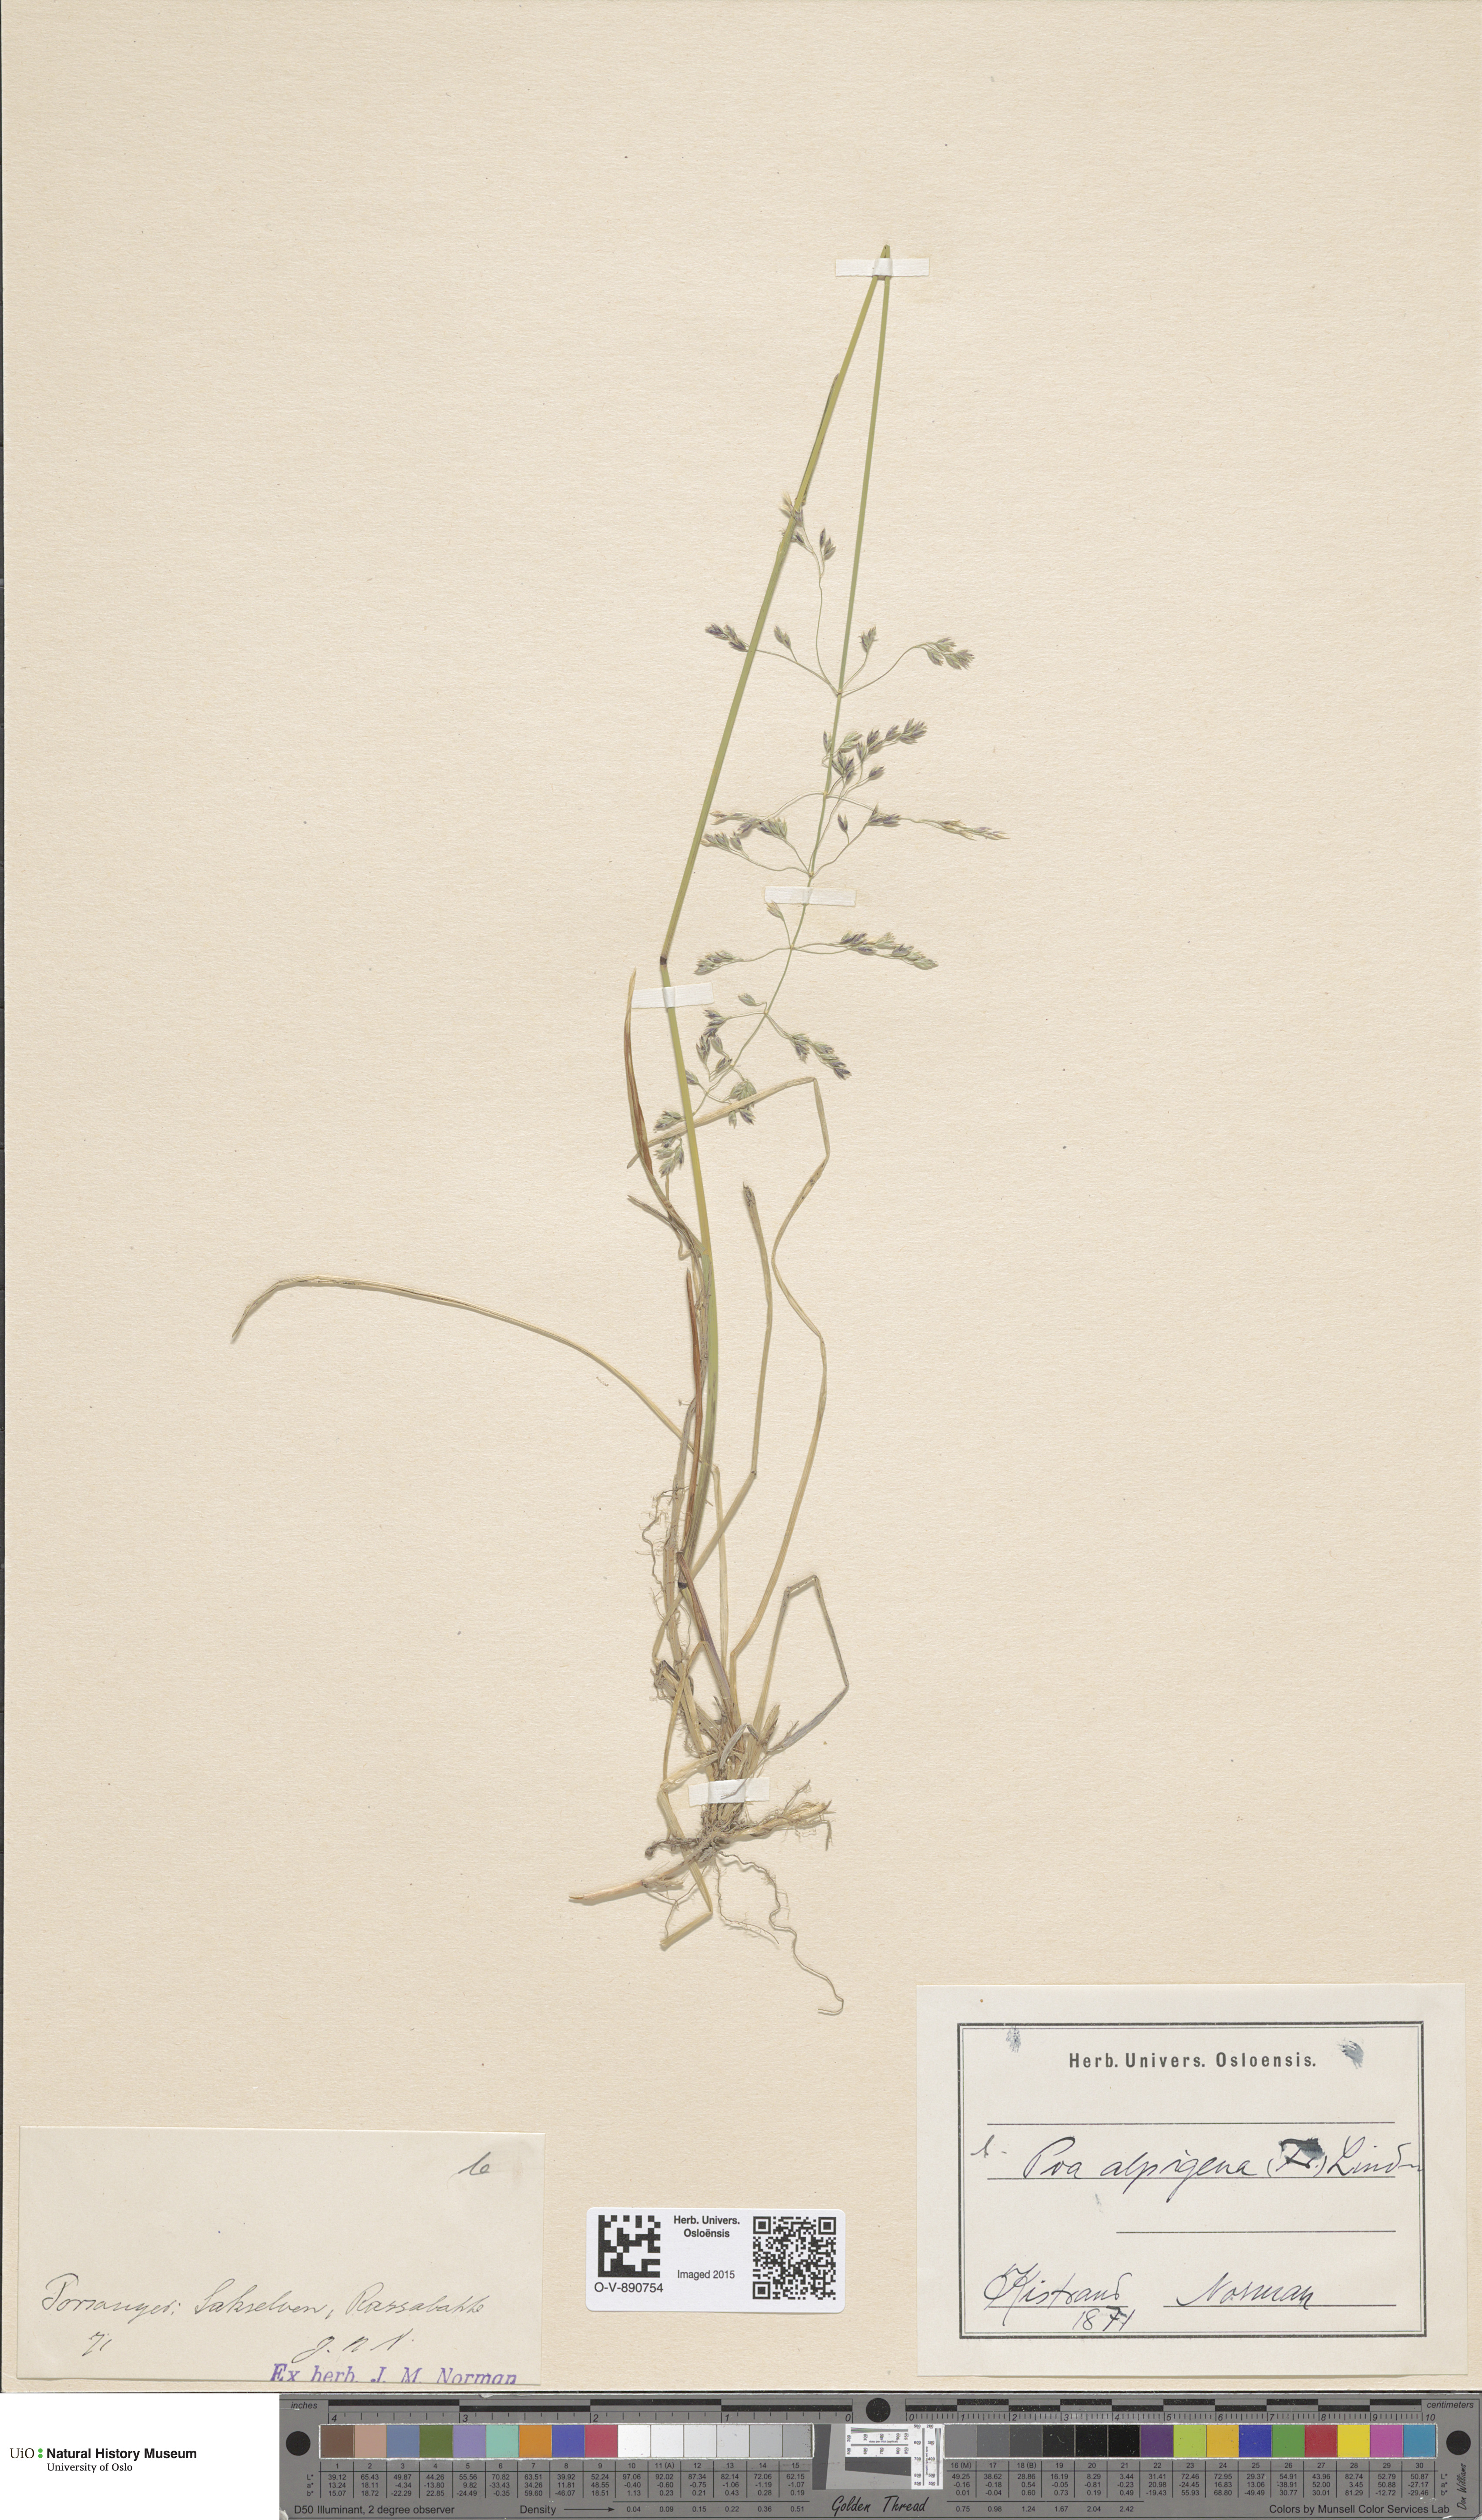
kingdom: Plantae
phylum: Tracheophyta
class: Liliopsida
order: Poales
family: Poaceae
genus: Poa
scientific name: Poa alpigena
